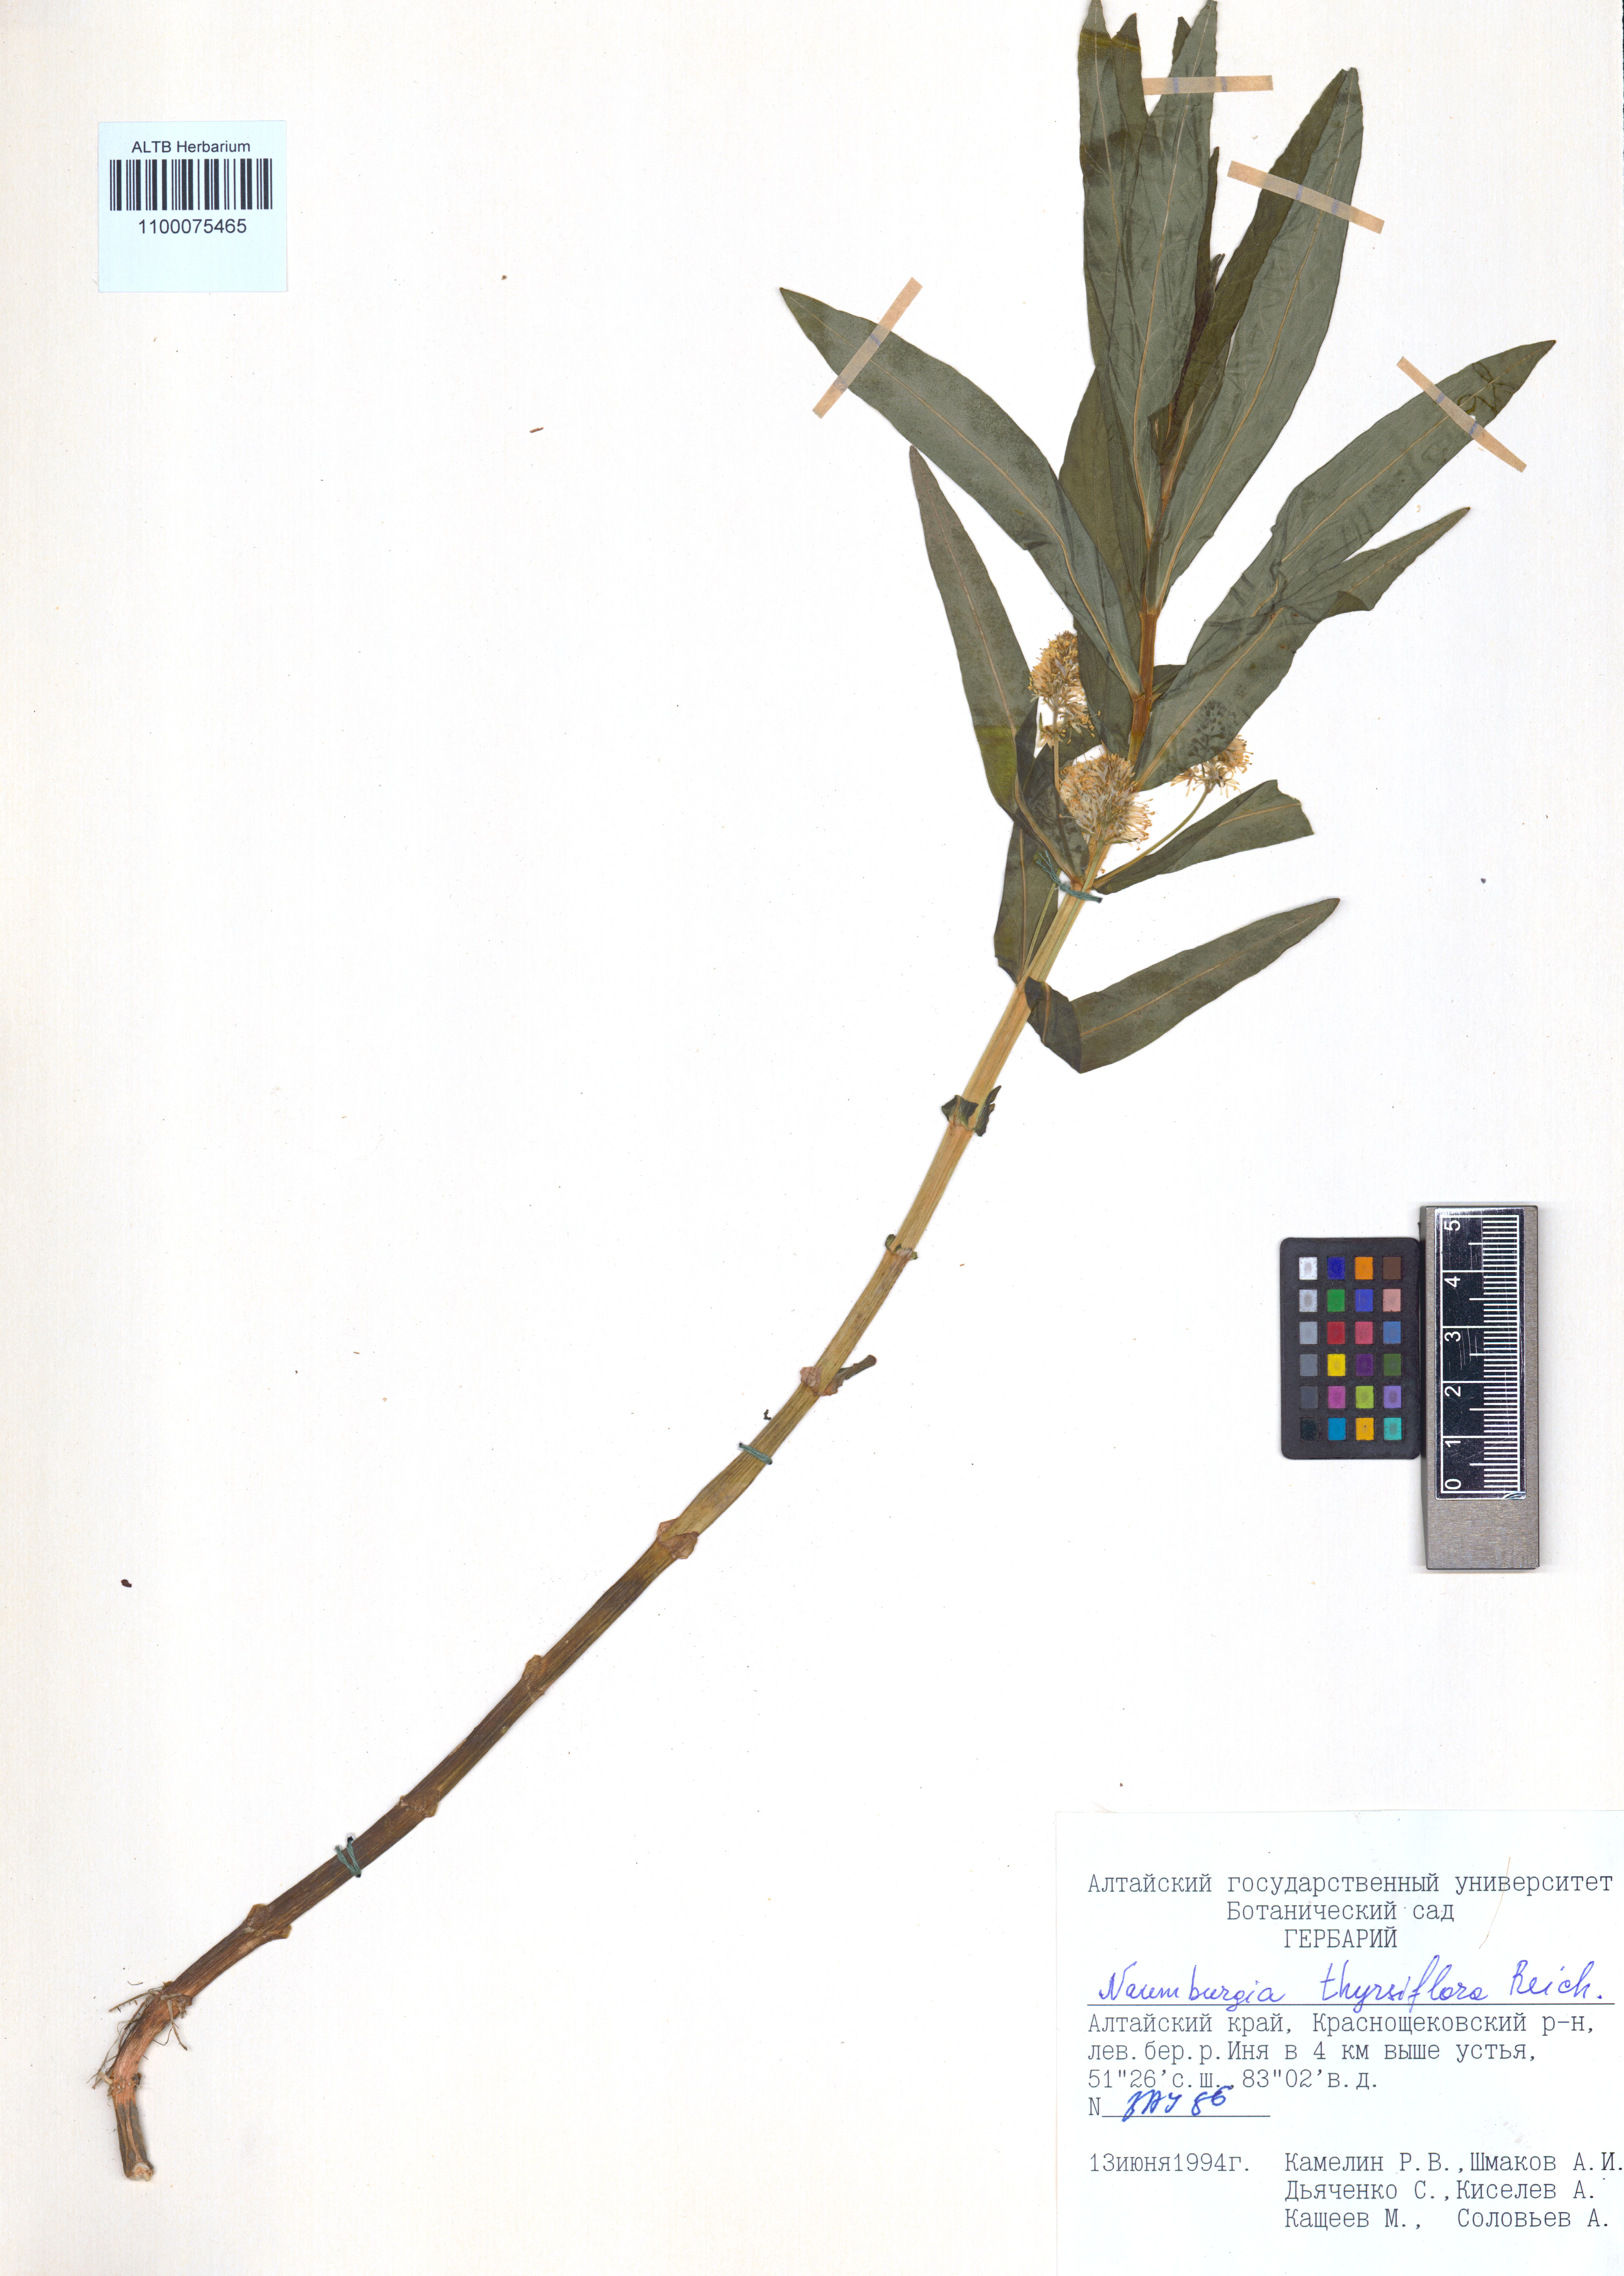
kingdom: Plantae
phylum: Tracheophyta
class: Magnoliopsida
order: Ericales
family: Primulaceae
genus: Lysimachia
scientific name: Lysimachia thyrsiflora
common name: Tufted loosestrife
